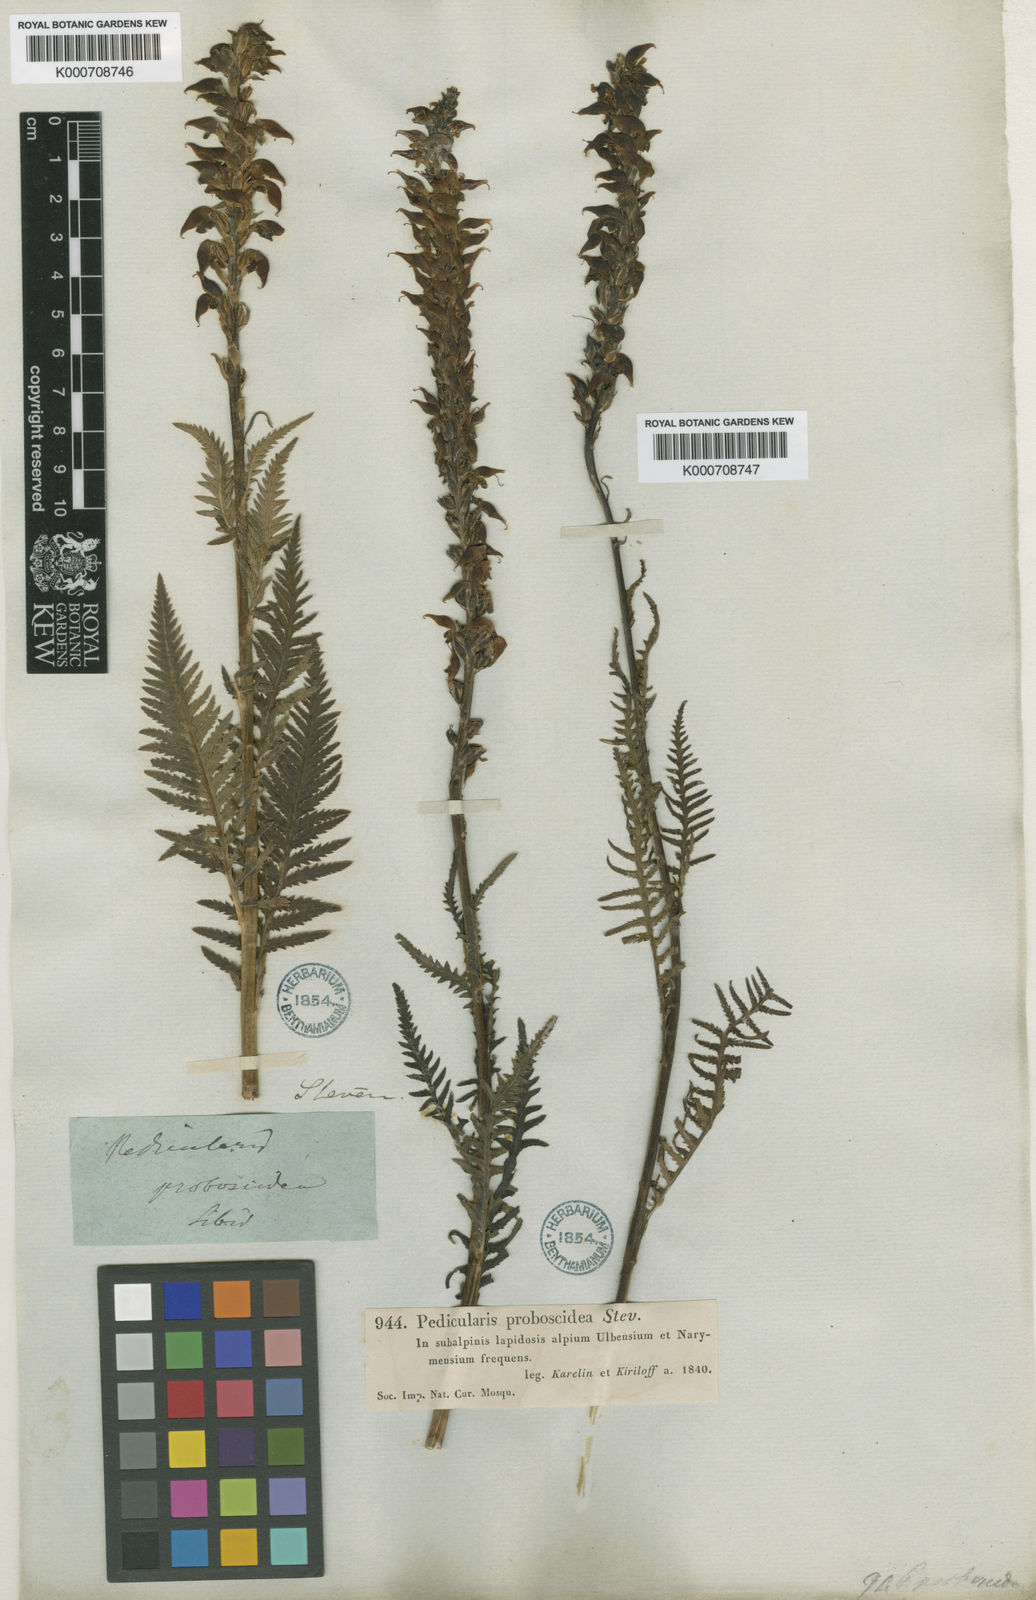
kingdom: Plantae
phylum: Tracheophyta
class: Magnoliopsida
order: Lamiales
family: Orobanchaceae
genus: Pedicularis
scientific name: Pedicularis
